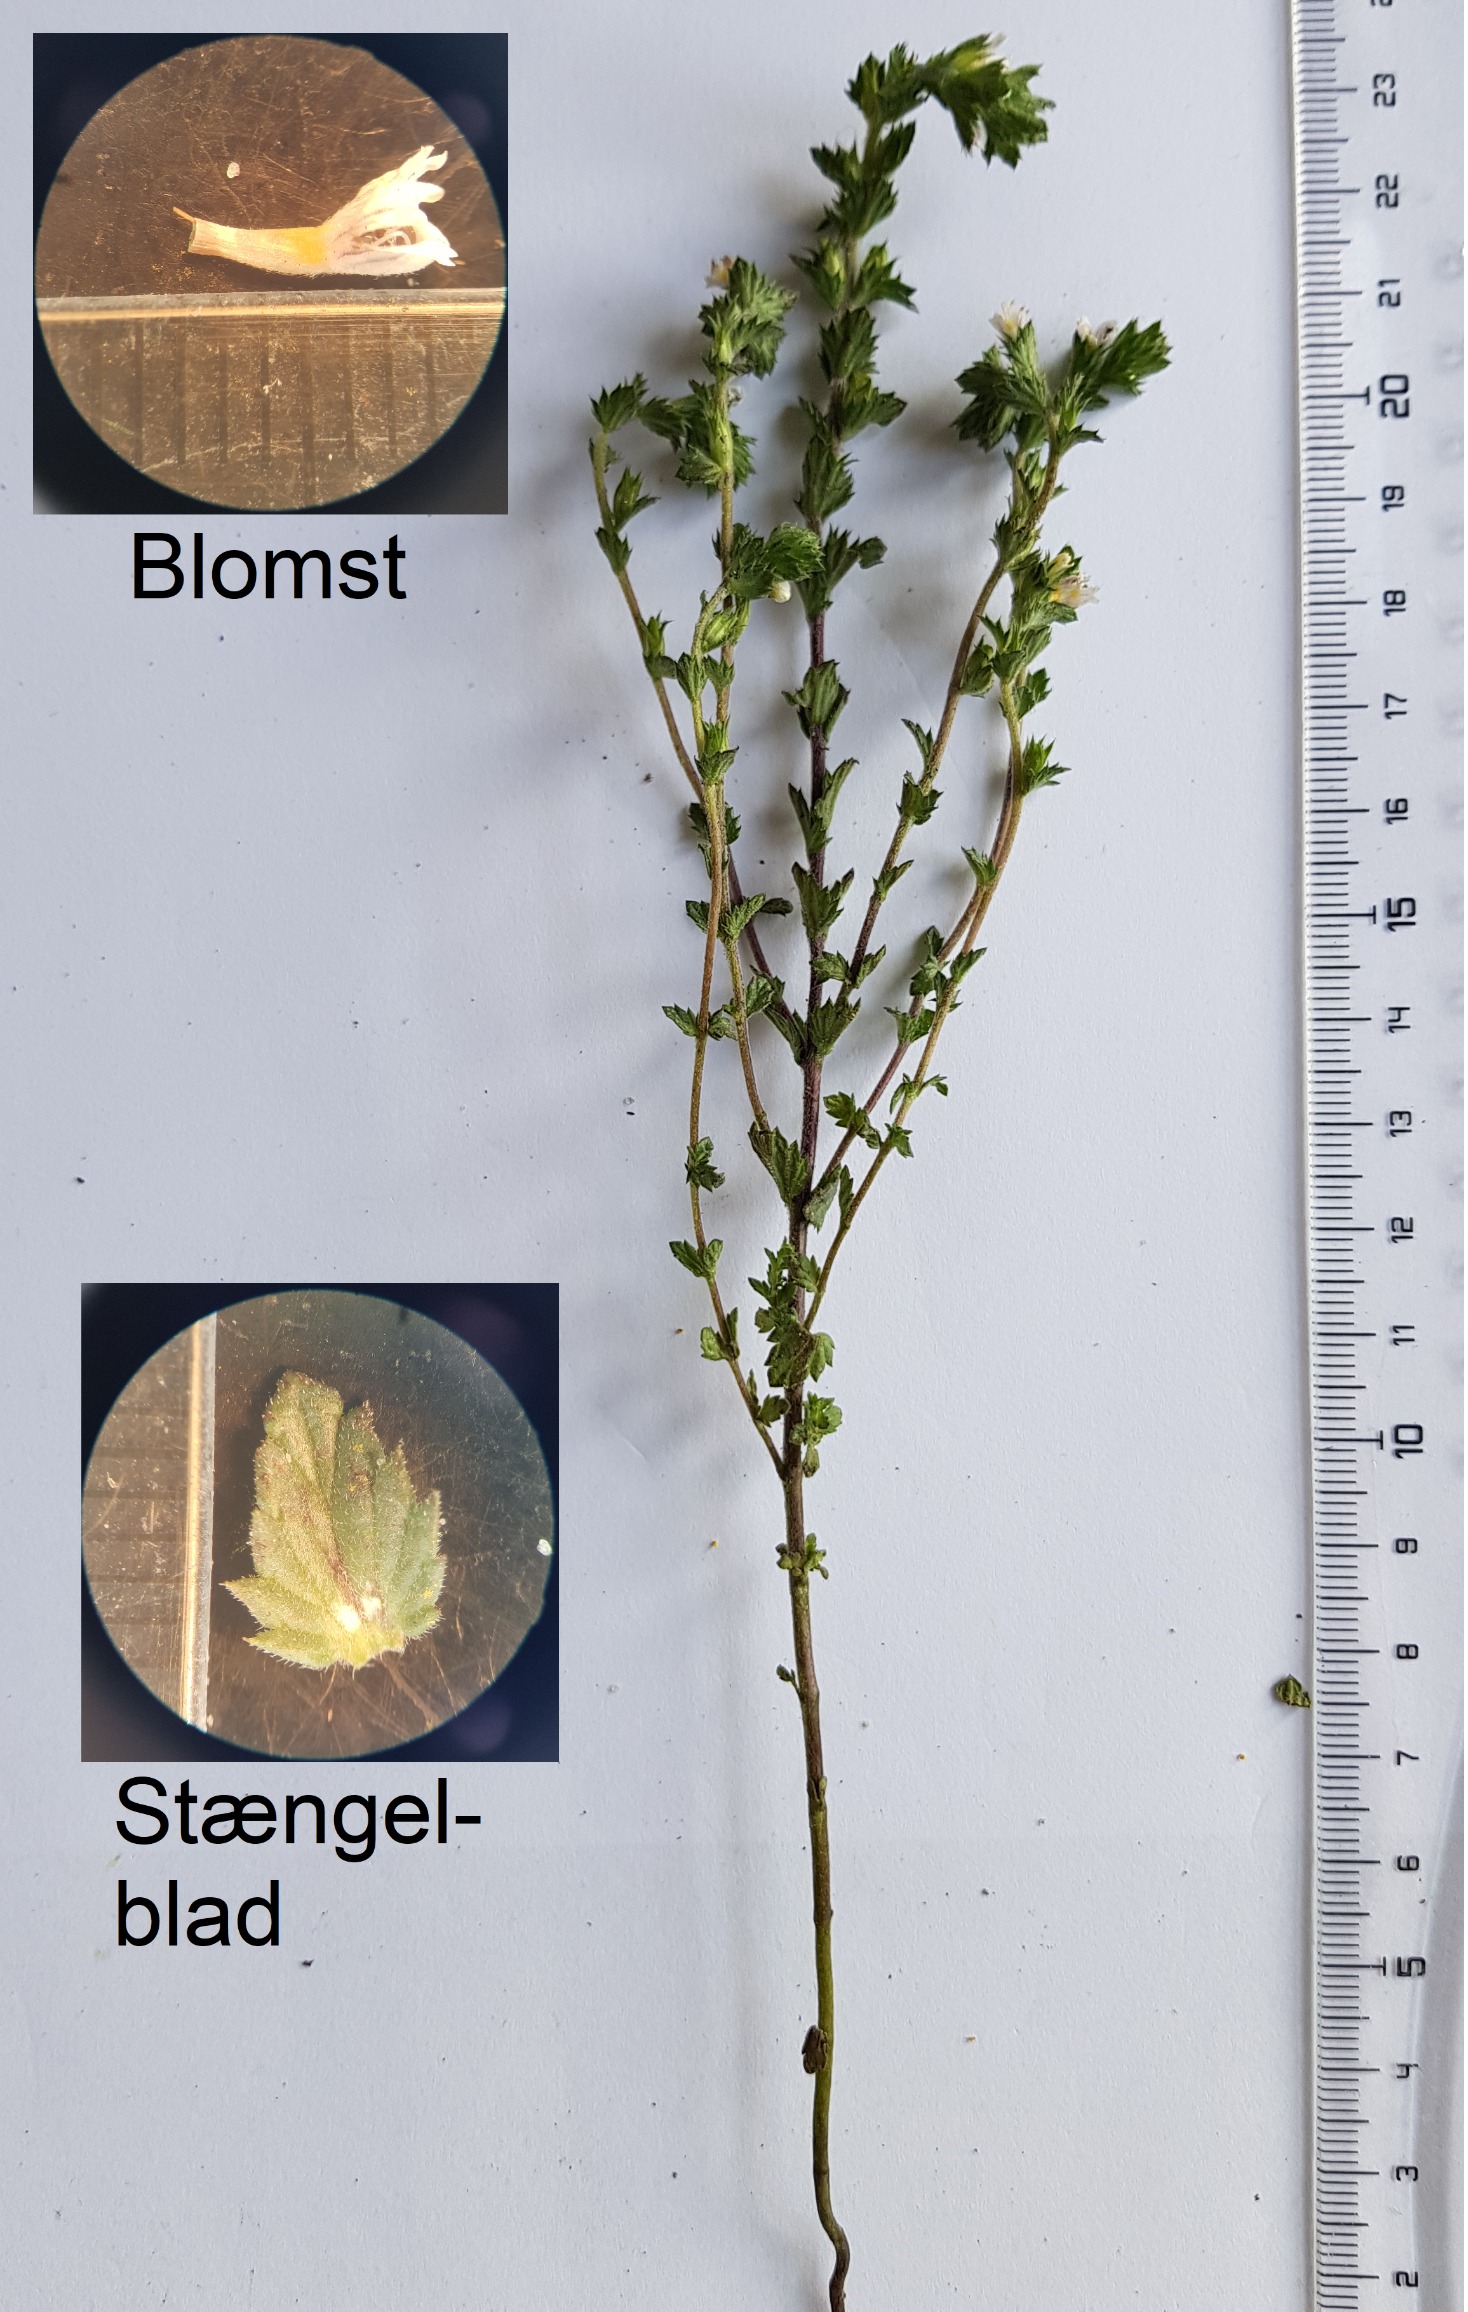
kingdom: Plantae
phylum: Tracheophyta
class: Magnoliopsida
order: Lamiales
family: Orobanchaceae
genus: Euphrasia
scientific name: Euphrasia nemorosa
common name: Kort øjentrøst
